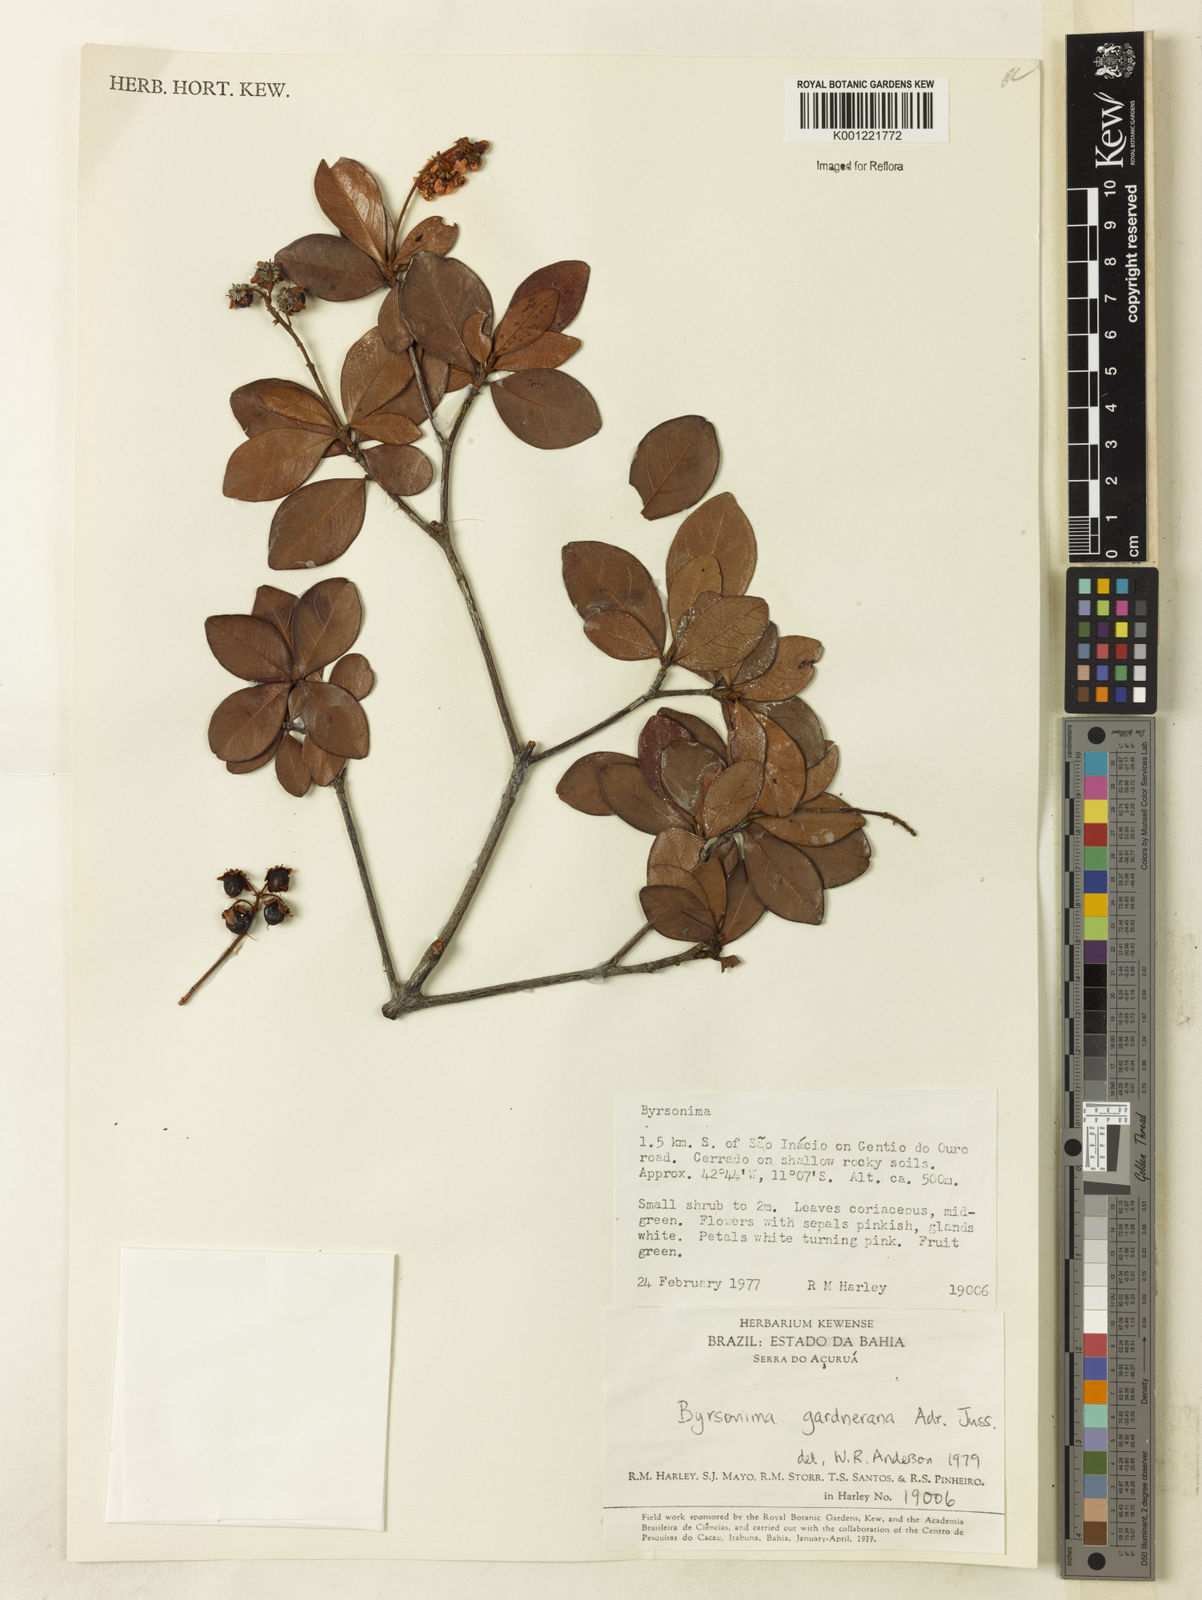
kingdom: Plantae
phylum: Tracheophyta
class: Magnoliopsida
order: Malpighiales
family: Malpighiaceae
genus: Byrsonima
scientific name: Byrsonima gardneriana
